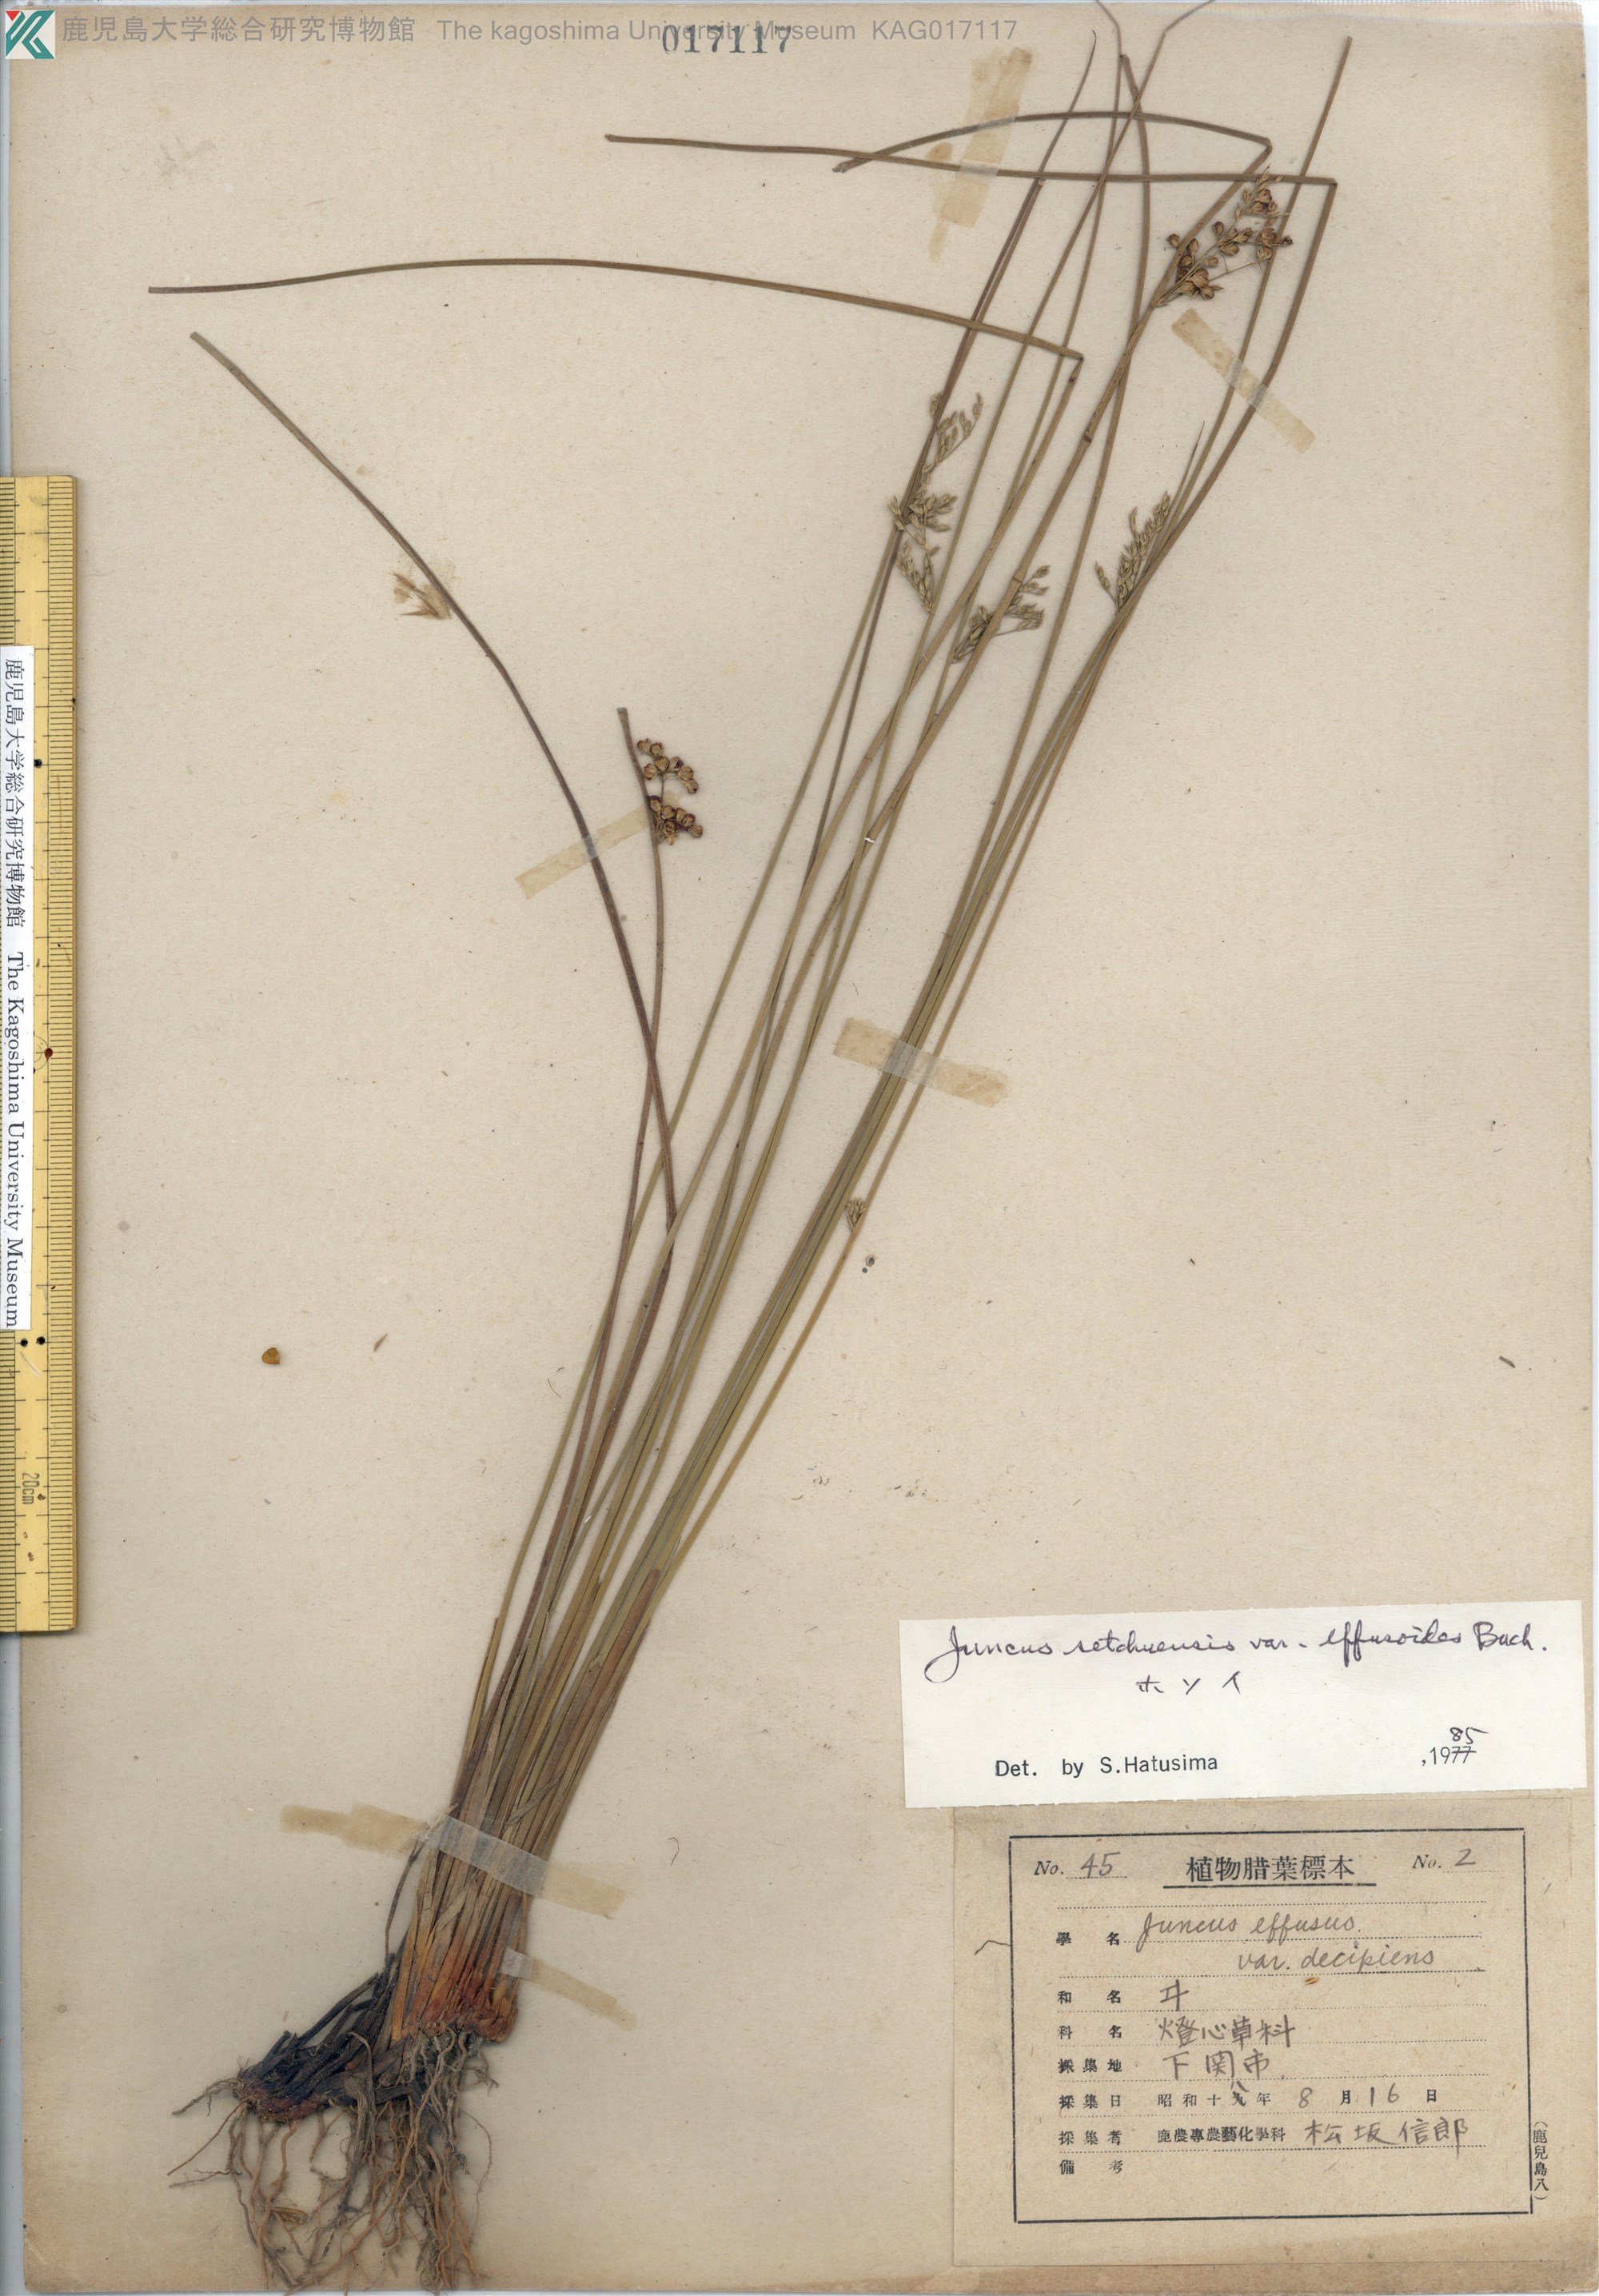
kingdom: Plantae
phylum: Tracheophyta
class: Liliopsida
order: Poales
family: Juncaceae
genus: Juncus
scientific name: Juncus setchuensis
